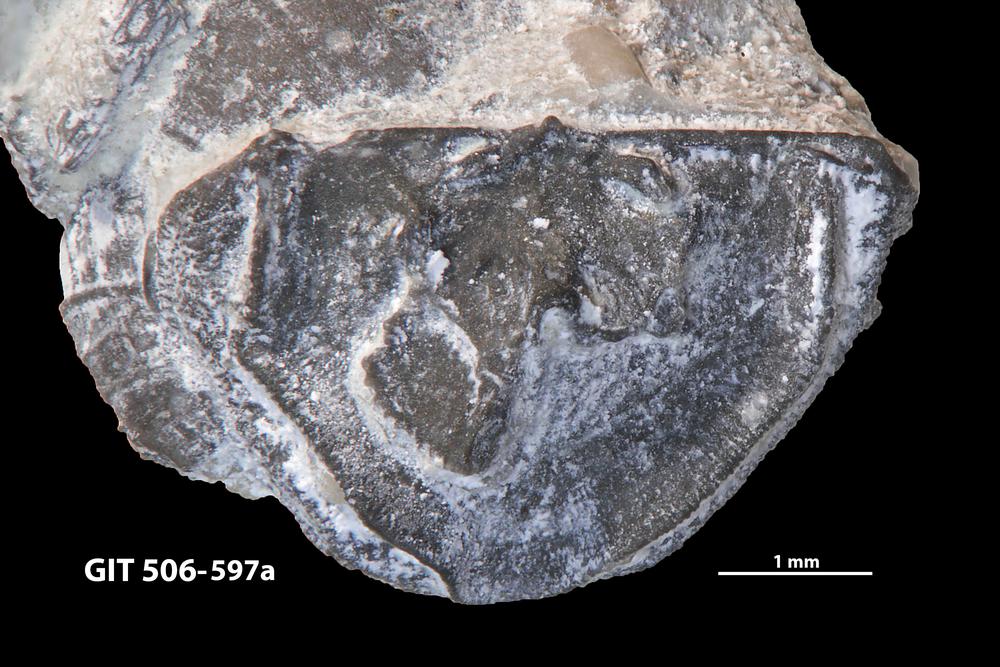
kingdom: Animalia
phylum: Brachiopoda
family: Leptellinidae
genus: Leangella
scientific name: Leangella Plectambonites scissa
